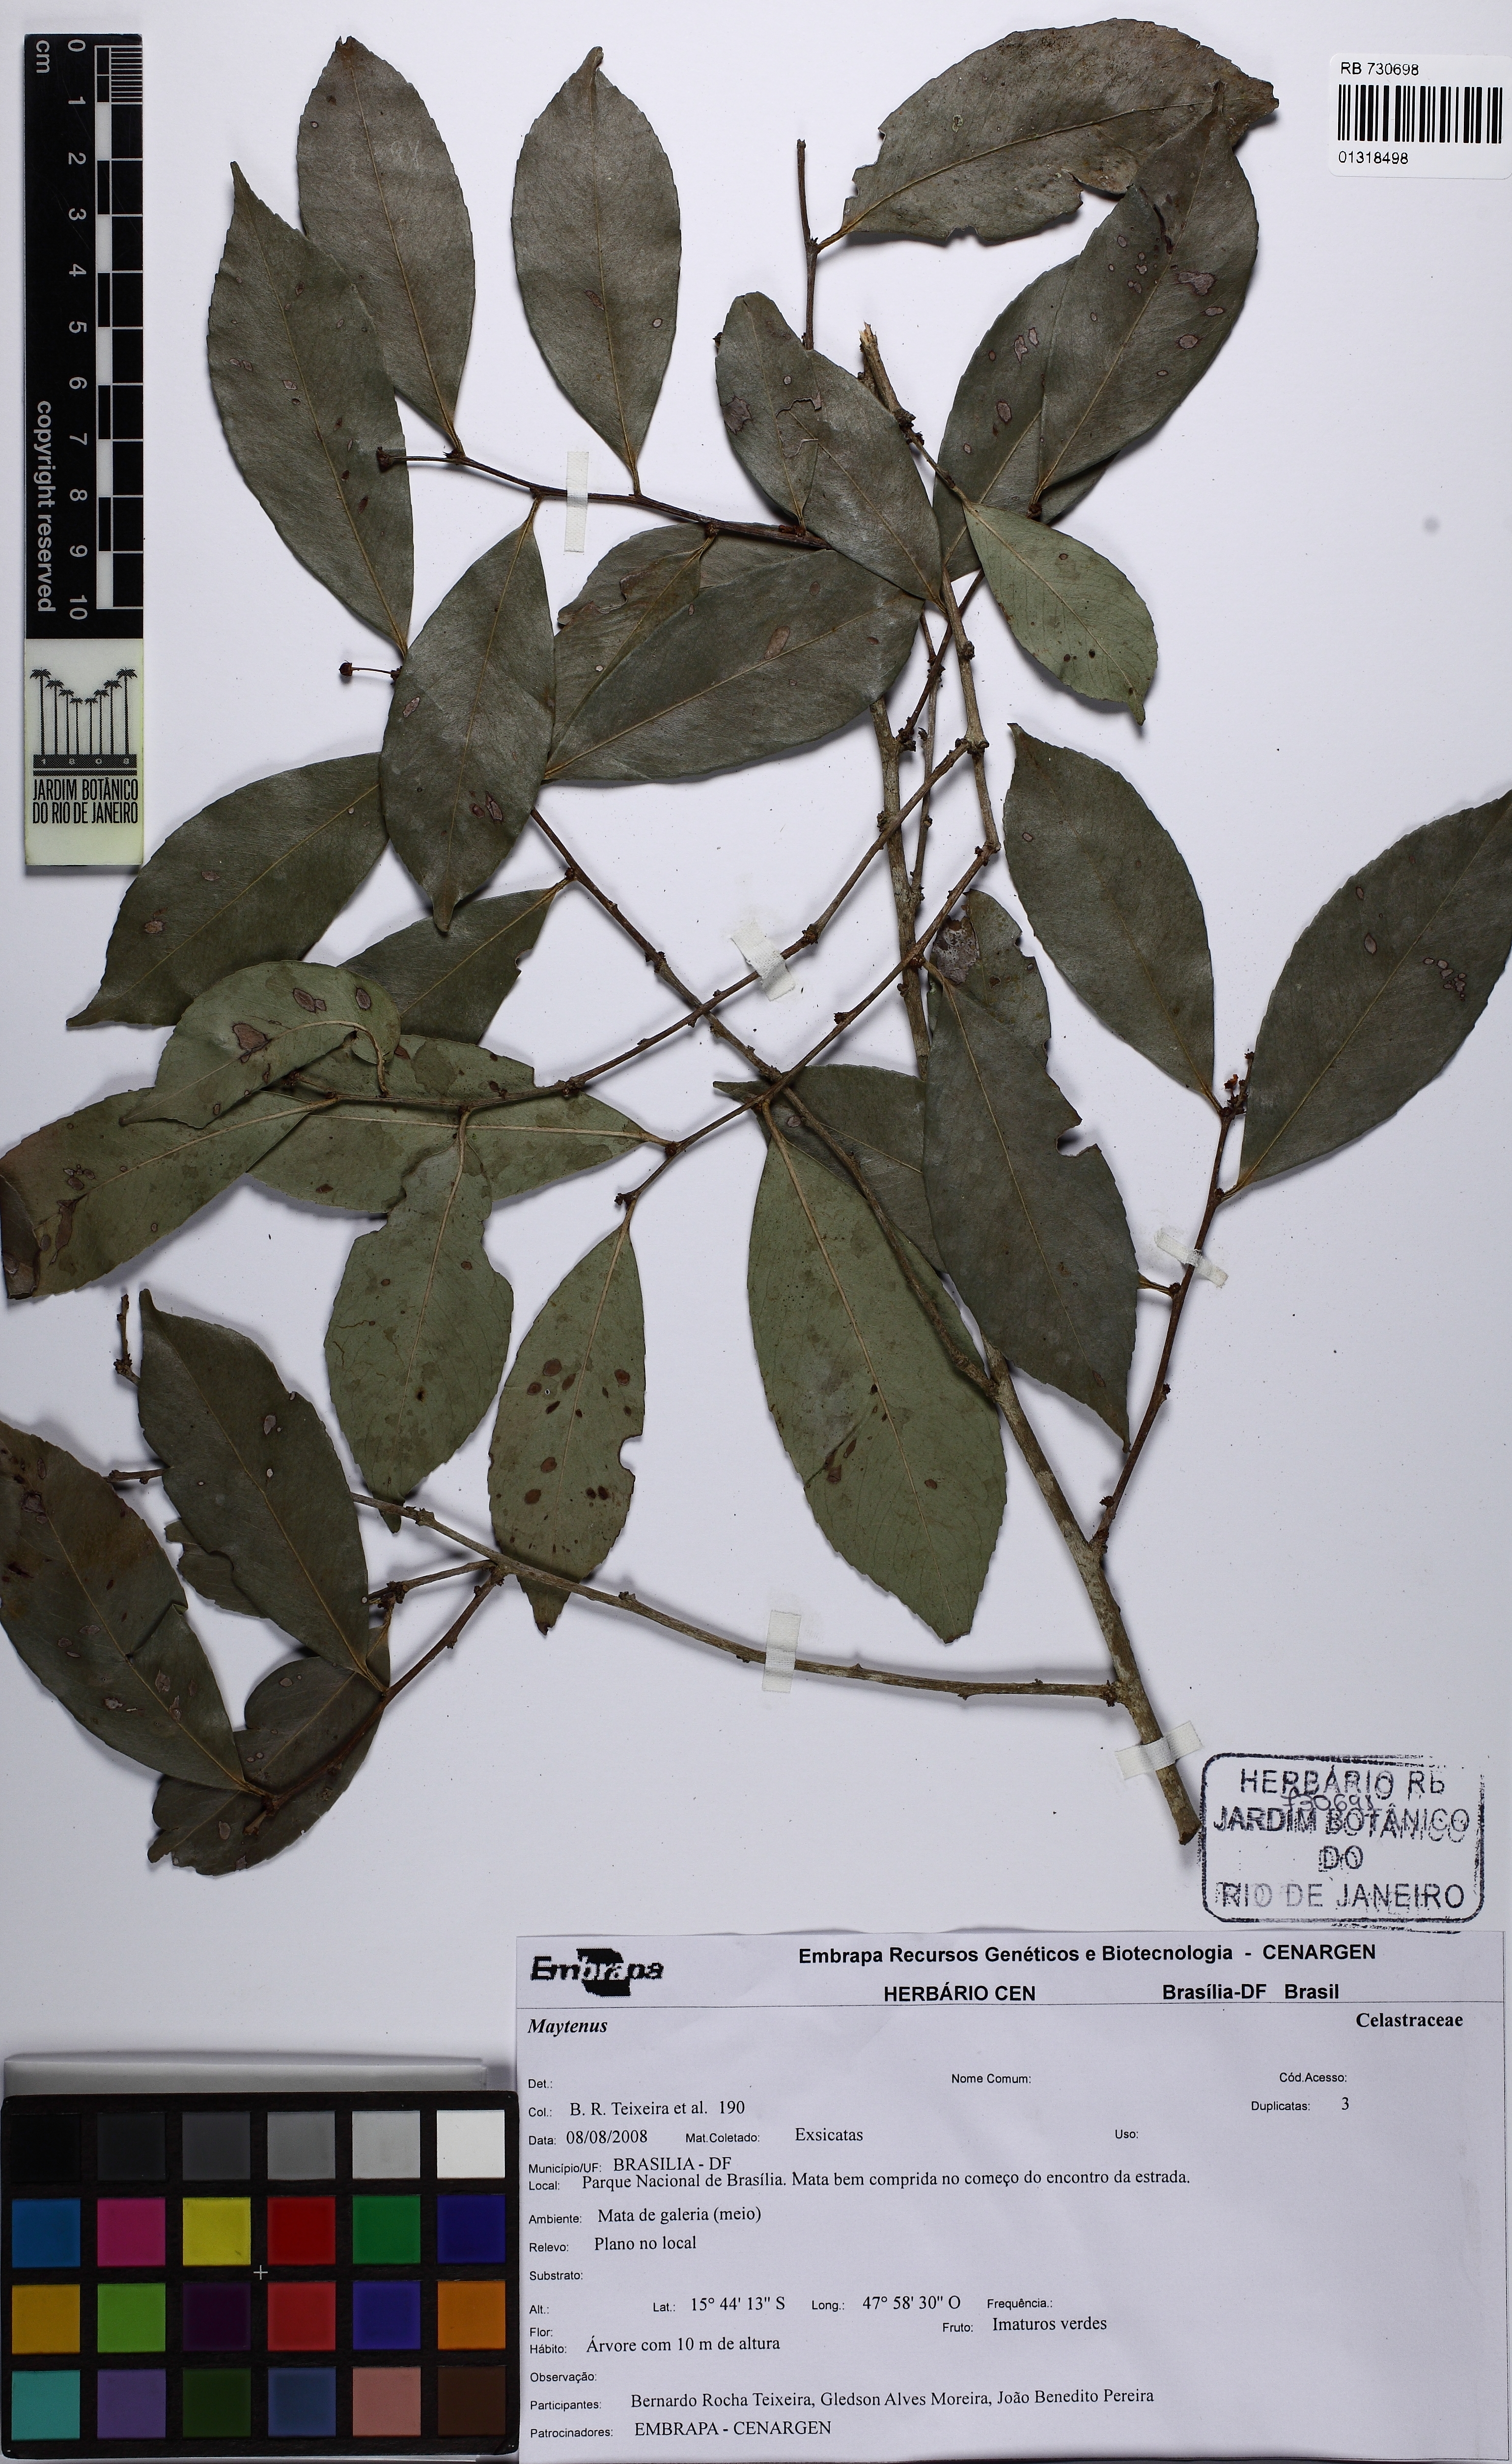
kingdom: Plantae
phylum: Tracheophyta
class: Magnoliopsida
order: Celastrales
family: Celastraceae
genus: Maytenus
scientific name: Maytenus
